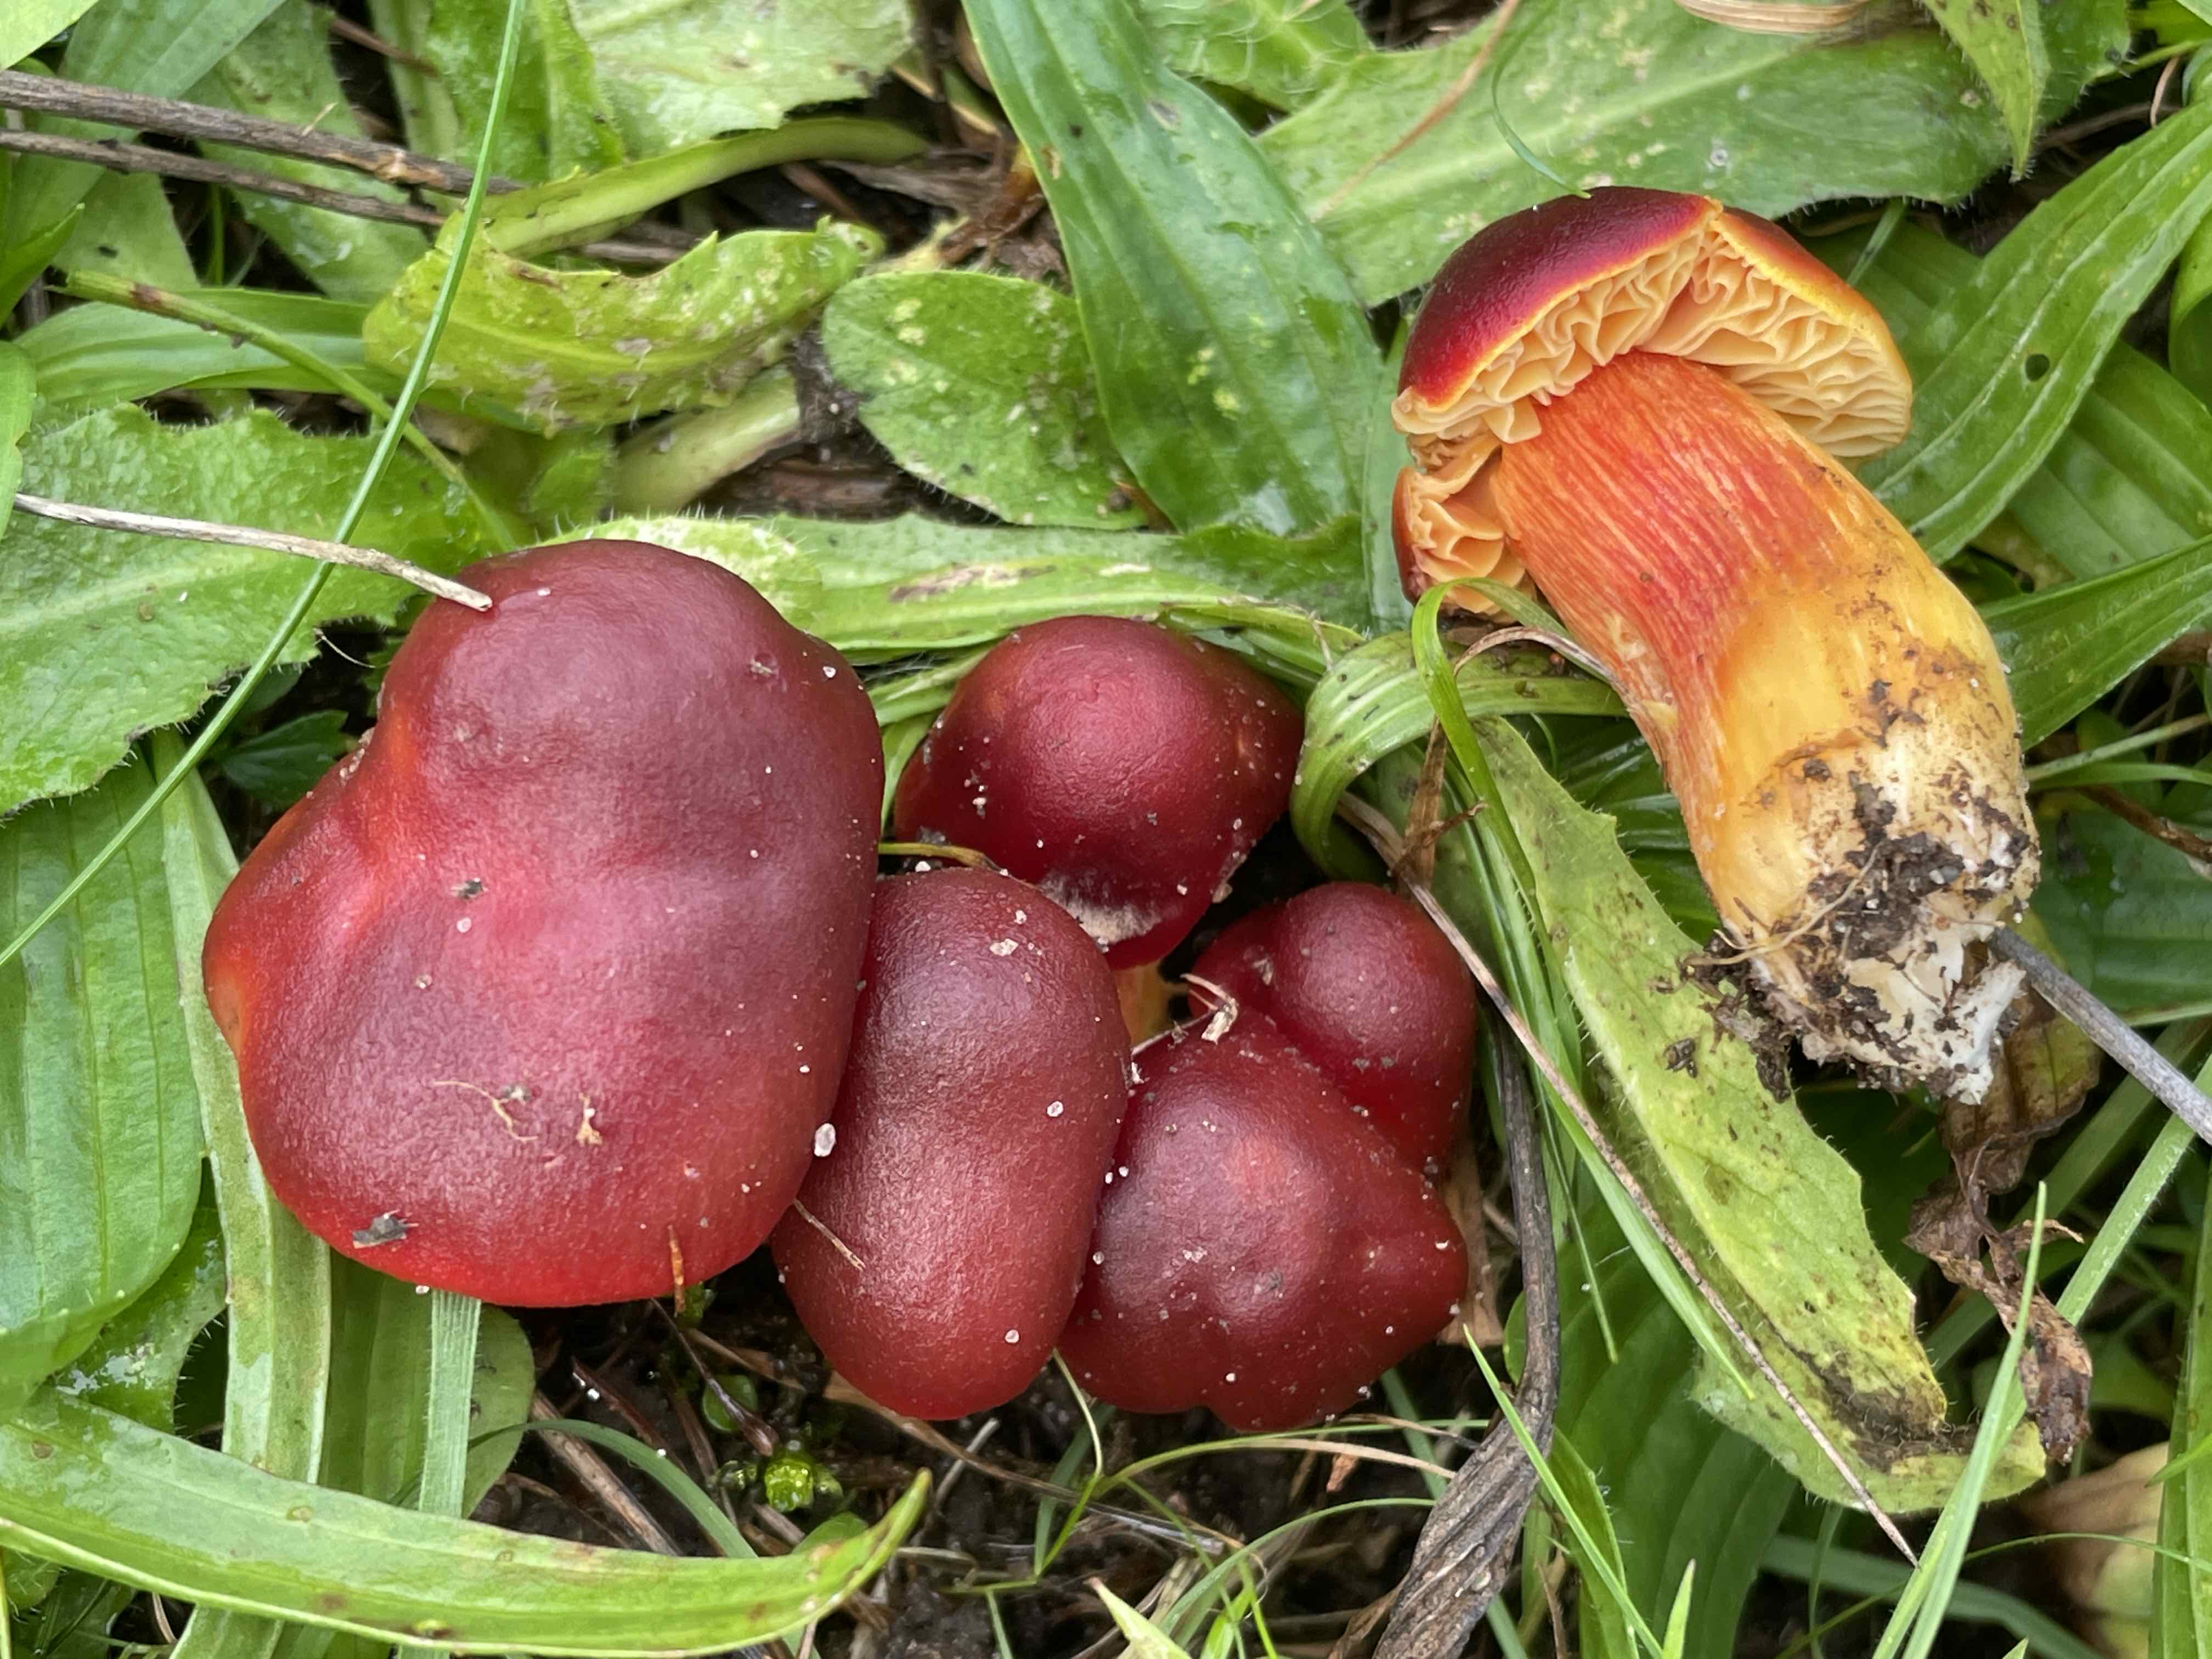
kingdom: Fungi
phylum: Basidiomycota
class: Agaricomycetes
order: Agaricales
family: Hygrophoraceae
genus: Hygrocybe
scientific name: Hygrocybe punicea
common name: skarlagen-vokshat
